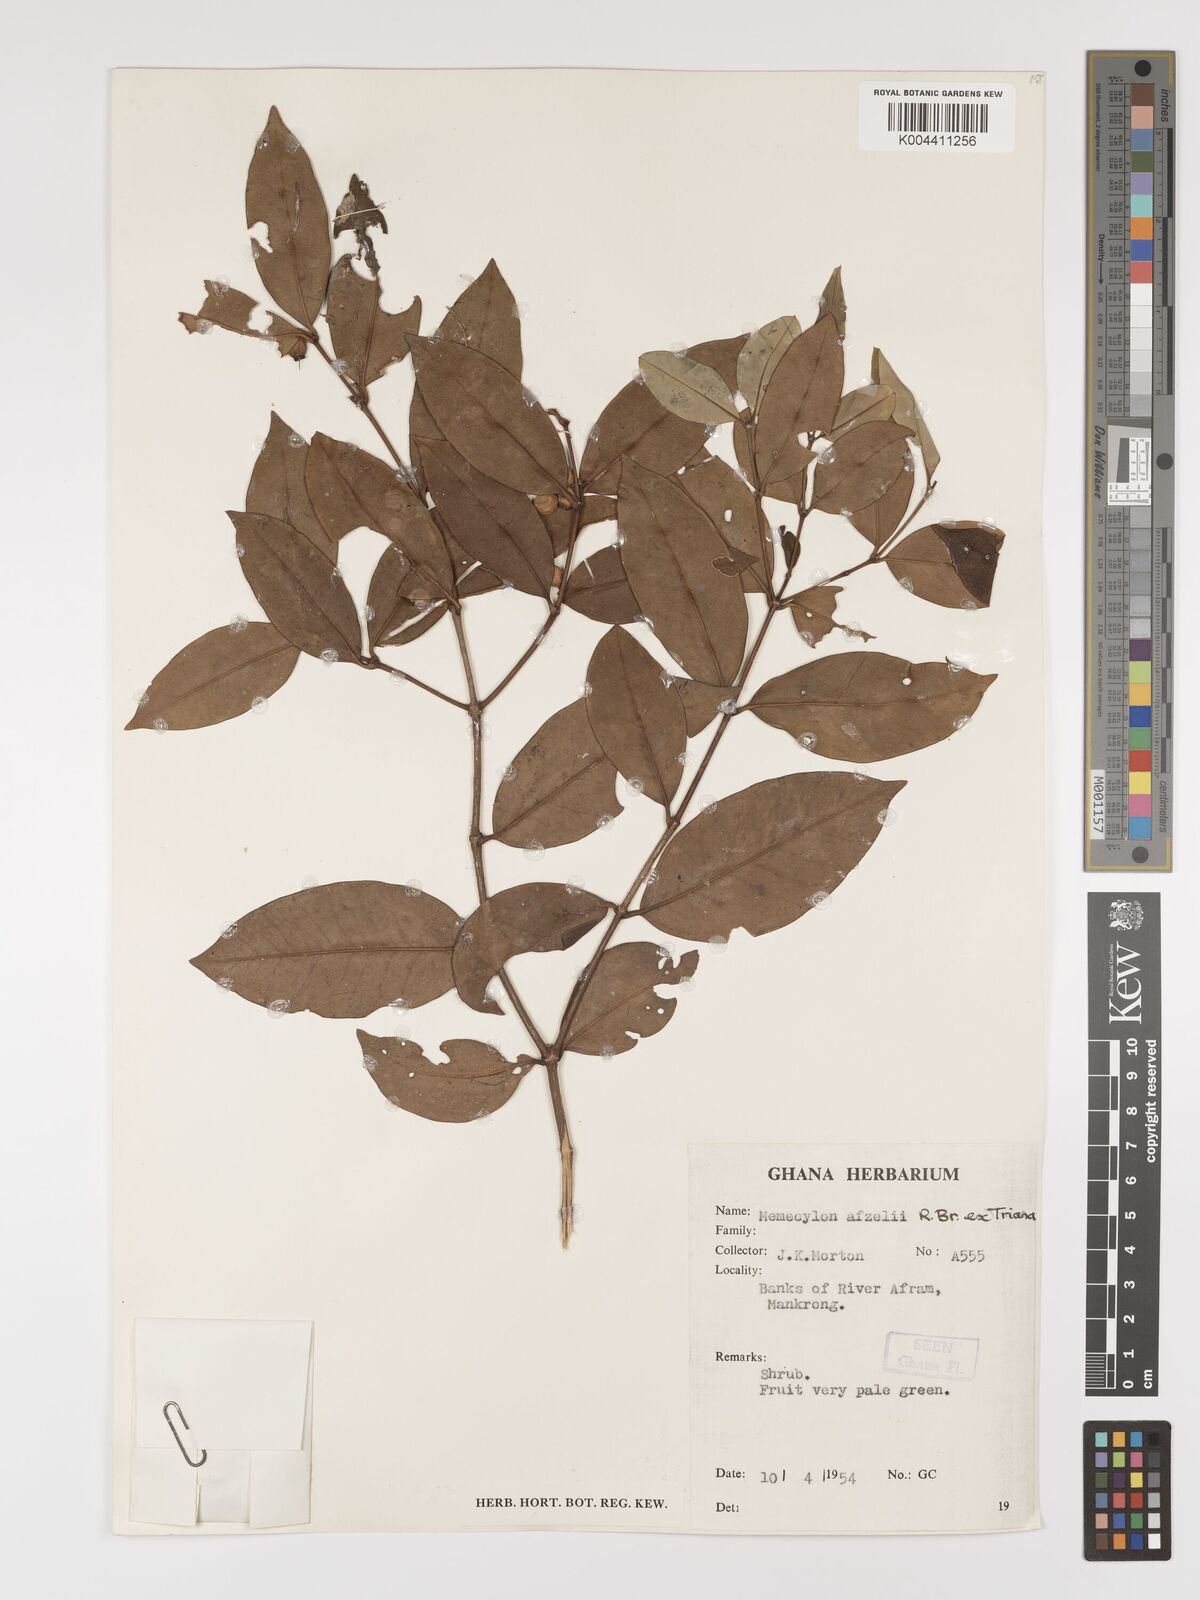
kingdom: Plantae
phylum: Tracheophyta
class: Magnoliopsida
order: Myrtales
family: Melastomataceae
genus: Memecylon
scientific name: Memecylon afzelii
